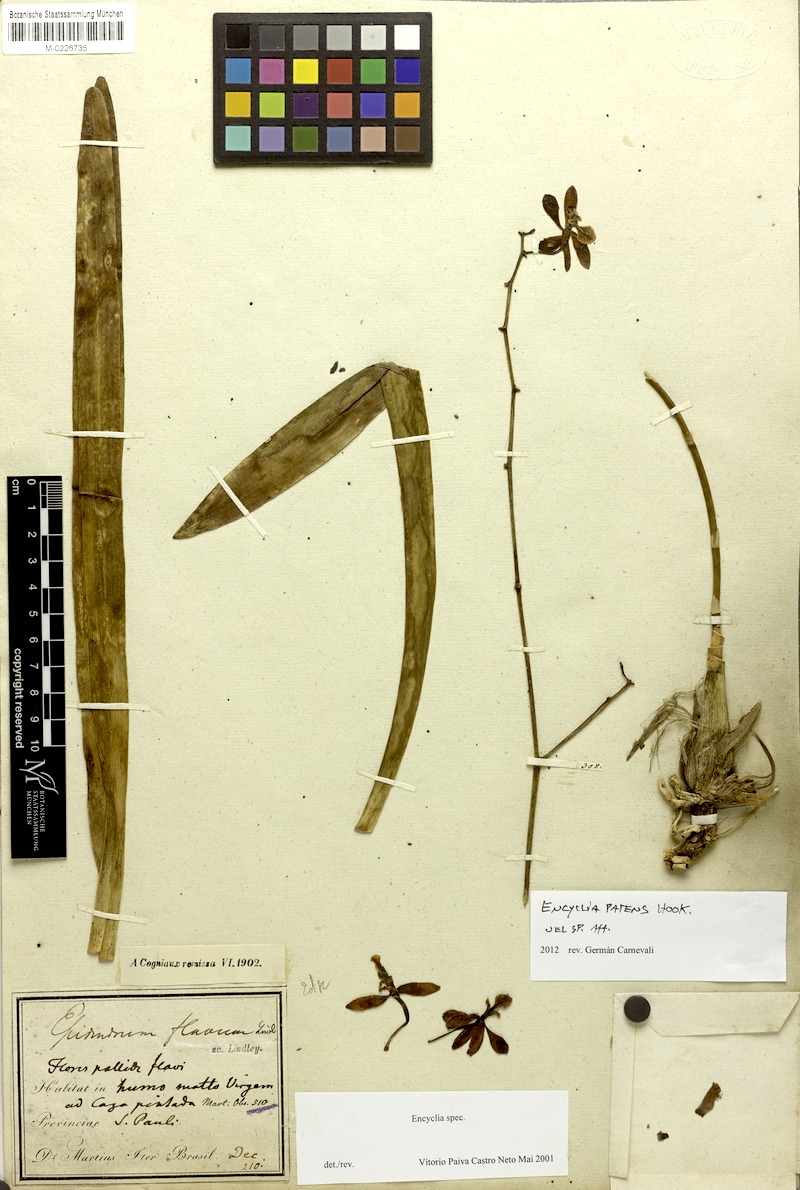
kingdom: Plantae
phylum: Tracheophyta
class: Liliopsida
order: Asparagales
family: Orchidaceae
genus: Encyclia
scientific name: Encyclia patens
